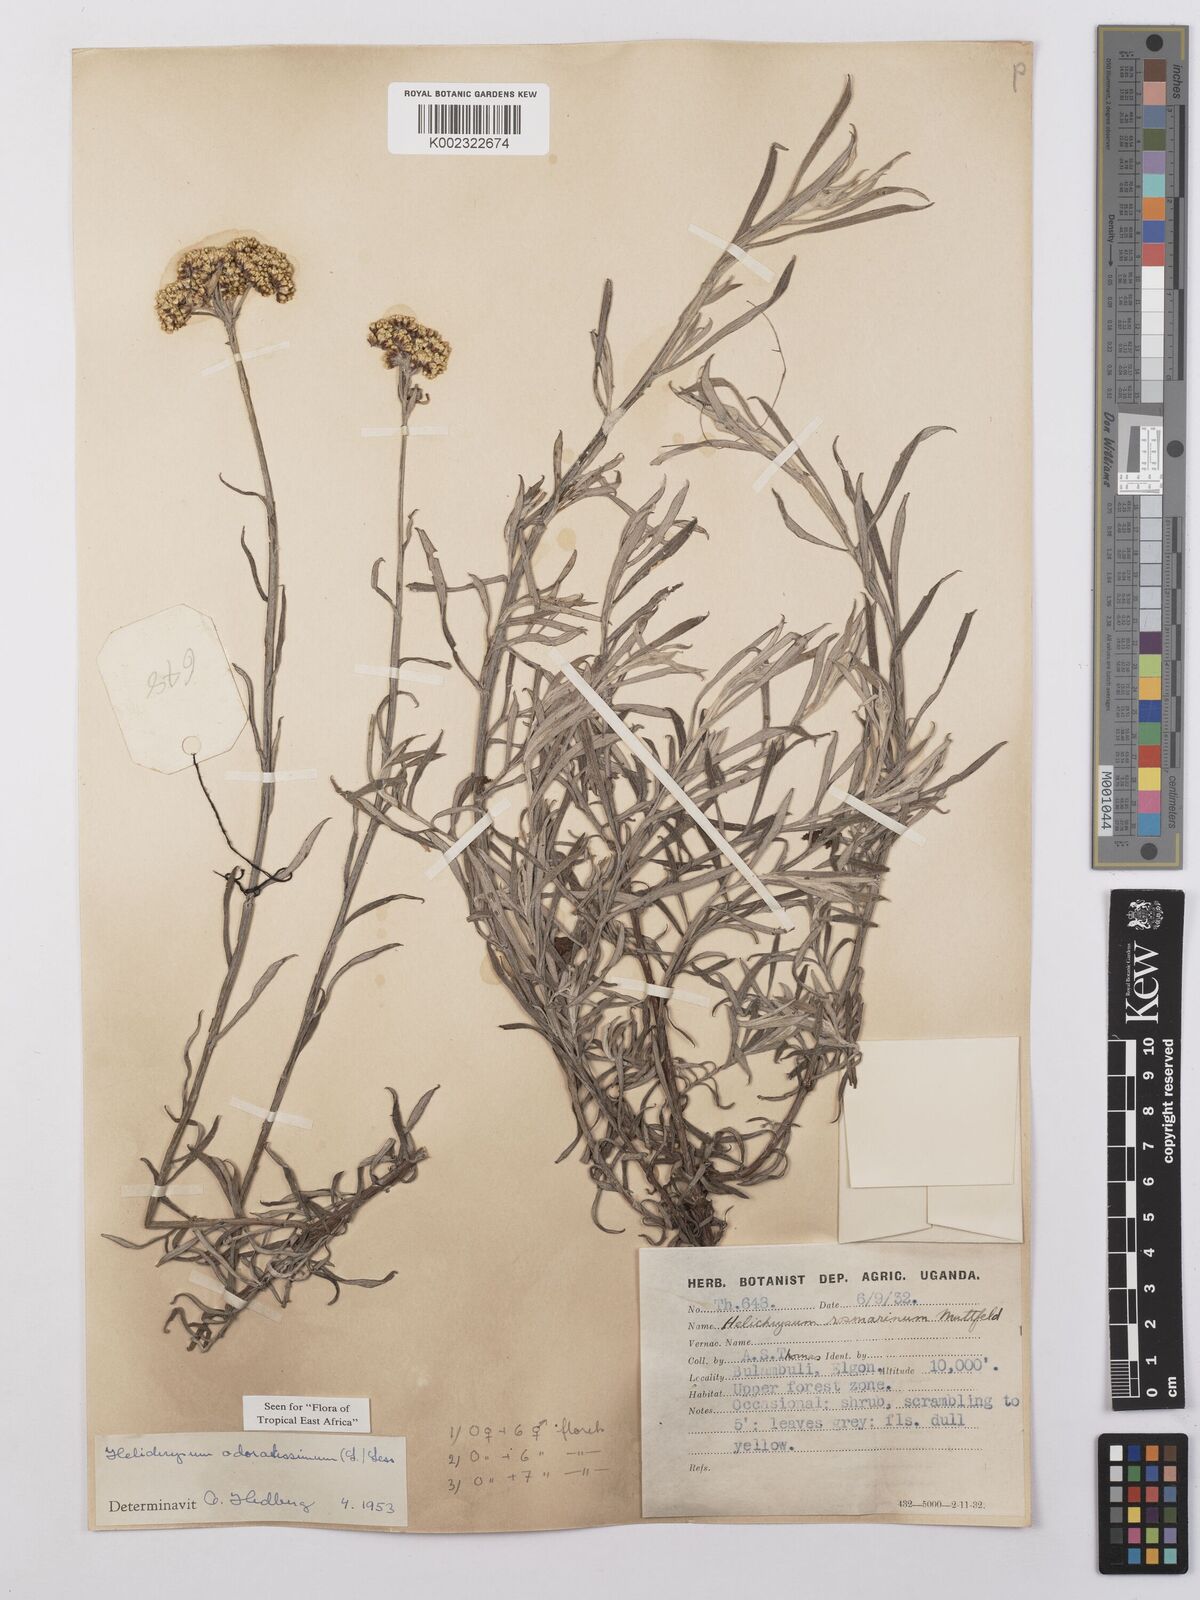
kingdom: Plantae
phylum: Tracheophyta
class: Magnoliopsida
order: Asterales
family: Asteraceae
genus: Helichrysum
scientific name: Helichrysum odoratissimum
